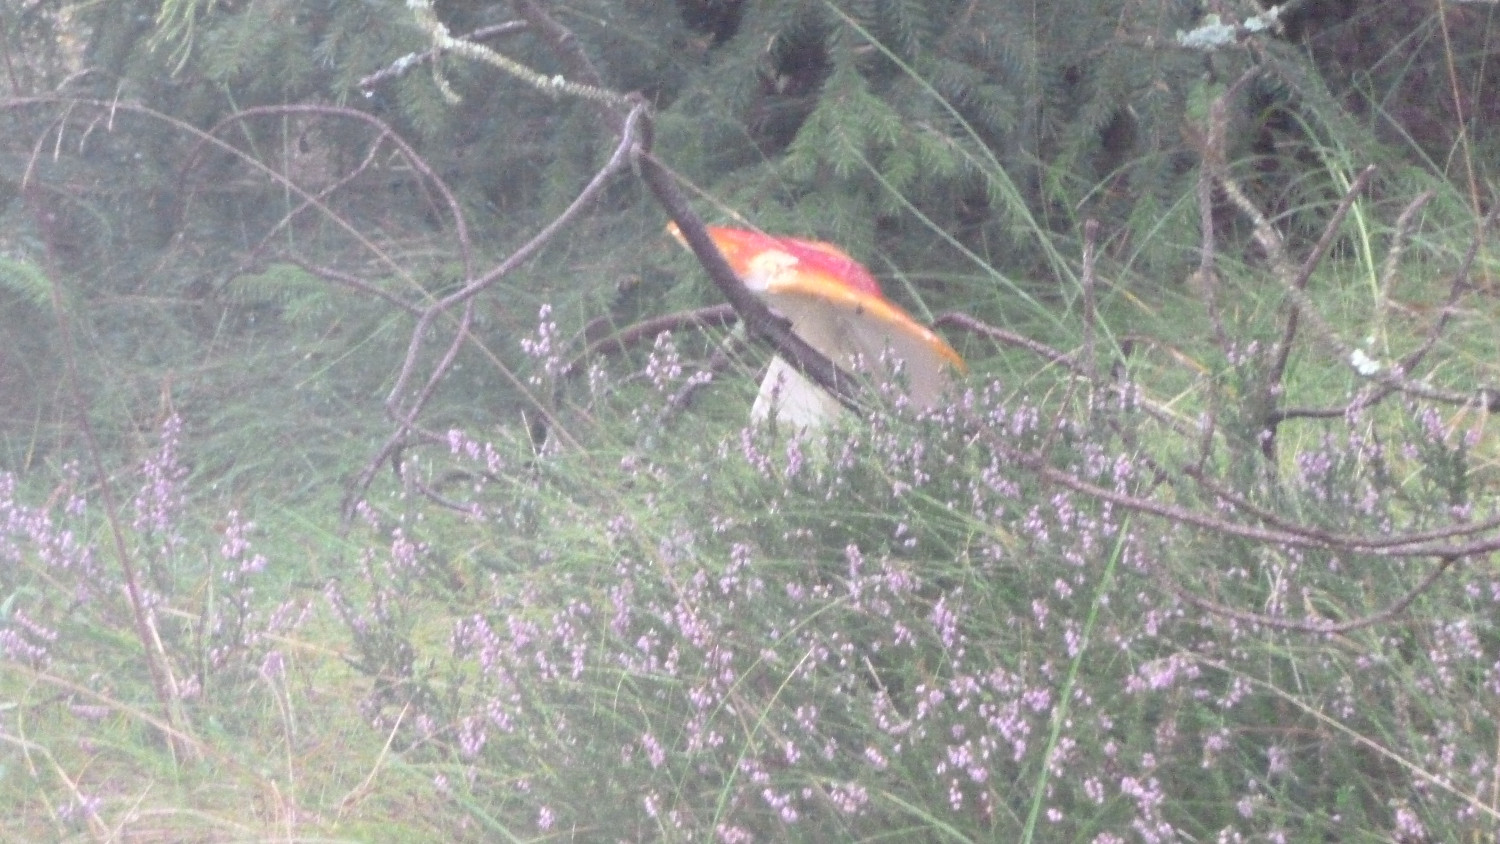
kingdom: Fungi
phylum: Basidiomycota
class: Agaricomycetes
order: Agaricales
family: Amanitaceae
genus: Amanita
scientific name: Amanita muscaria
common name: rød fluesvamp
